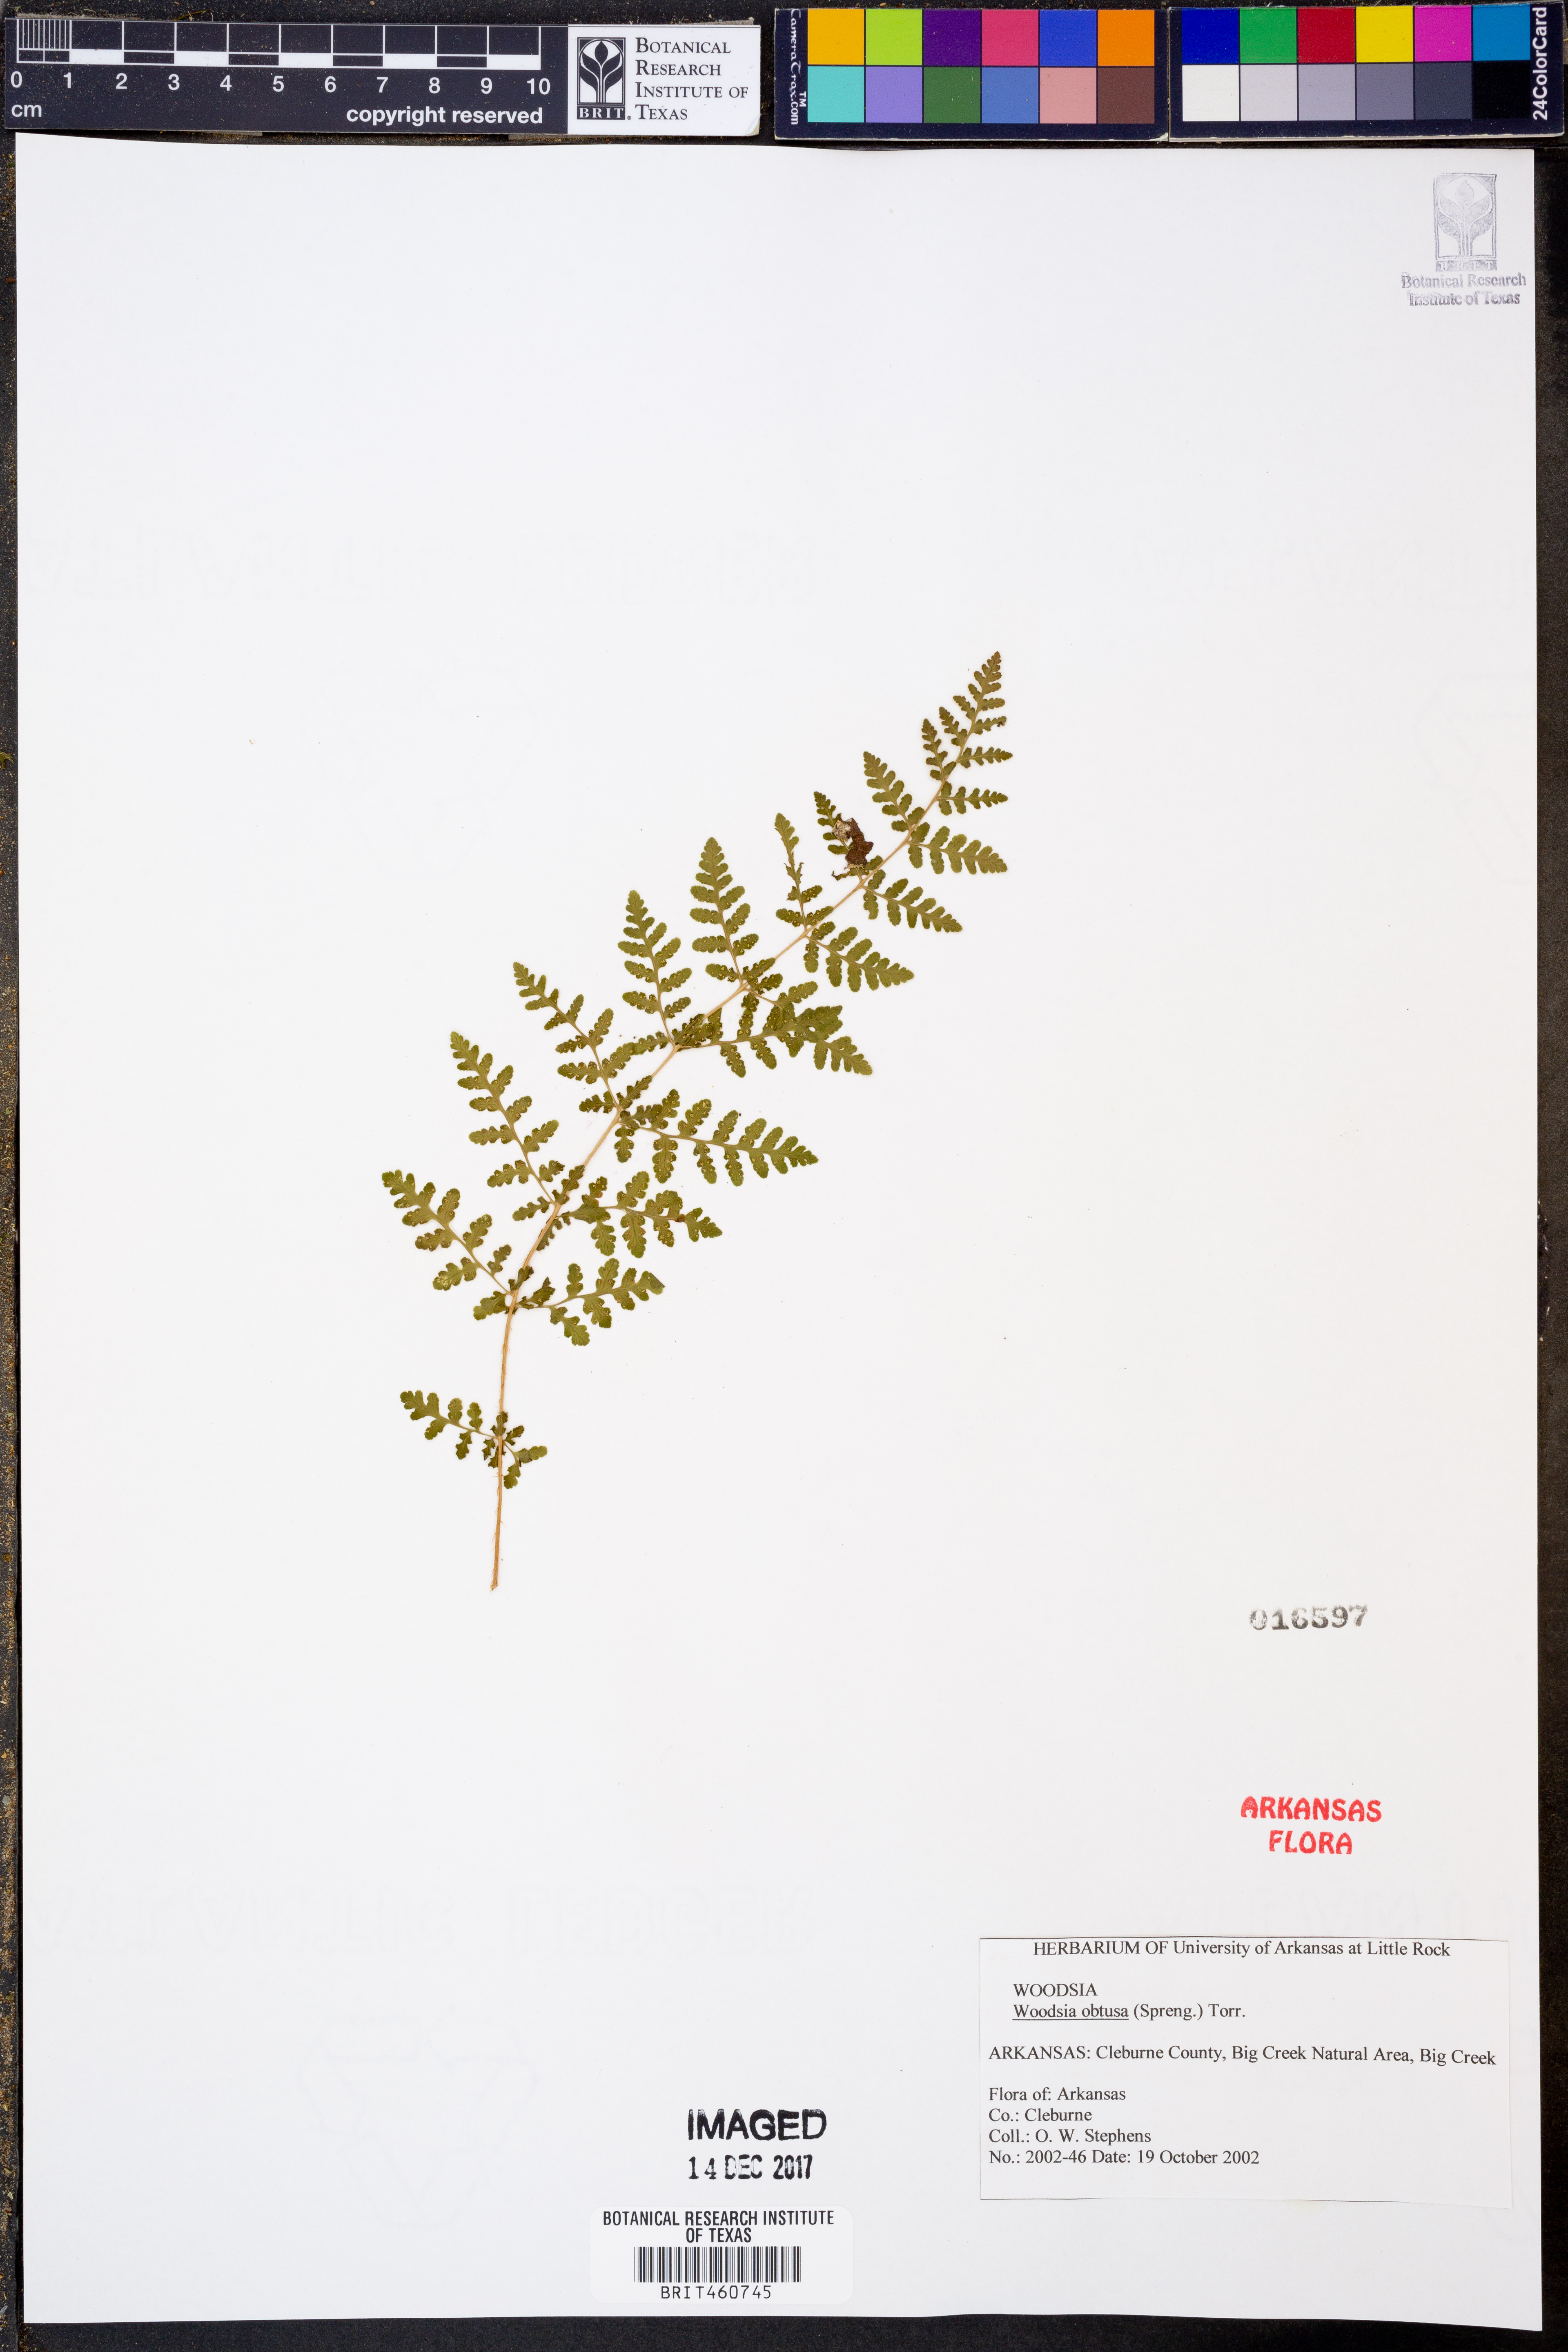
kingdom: Plantae
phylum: Tracheophyta
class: Polypodiopsida
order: Polypodiales
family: Woodsiaceae
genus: Physematium
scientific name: Physematium obtusum
